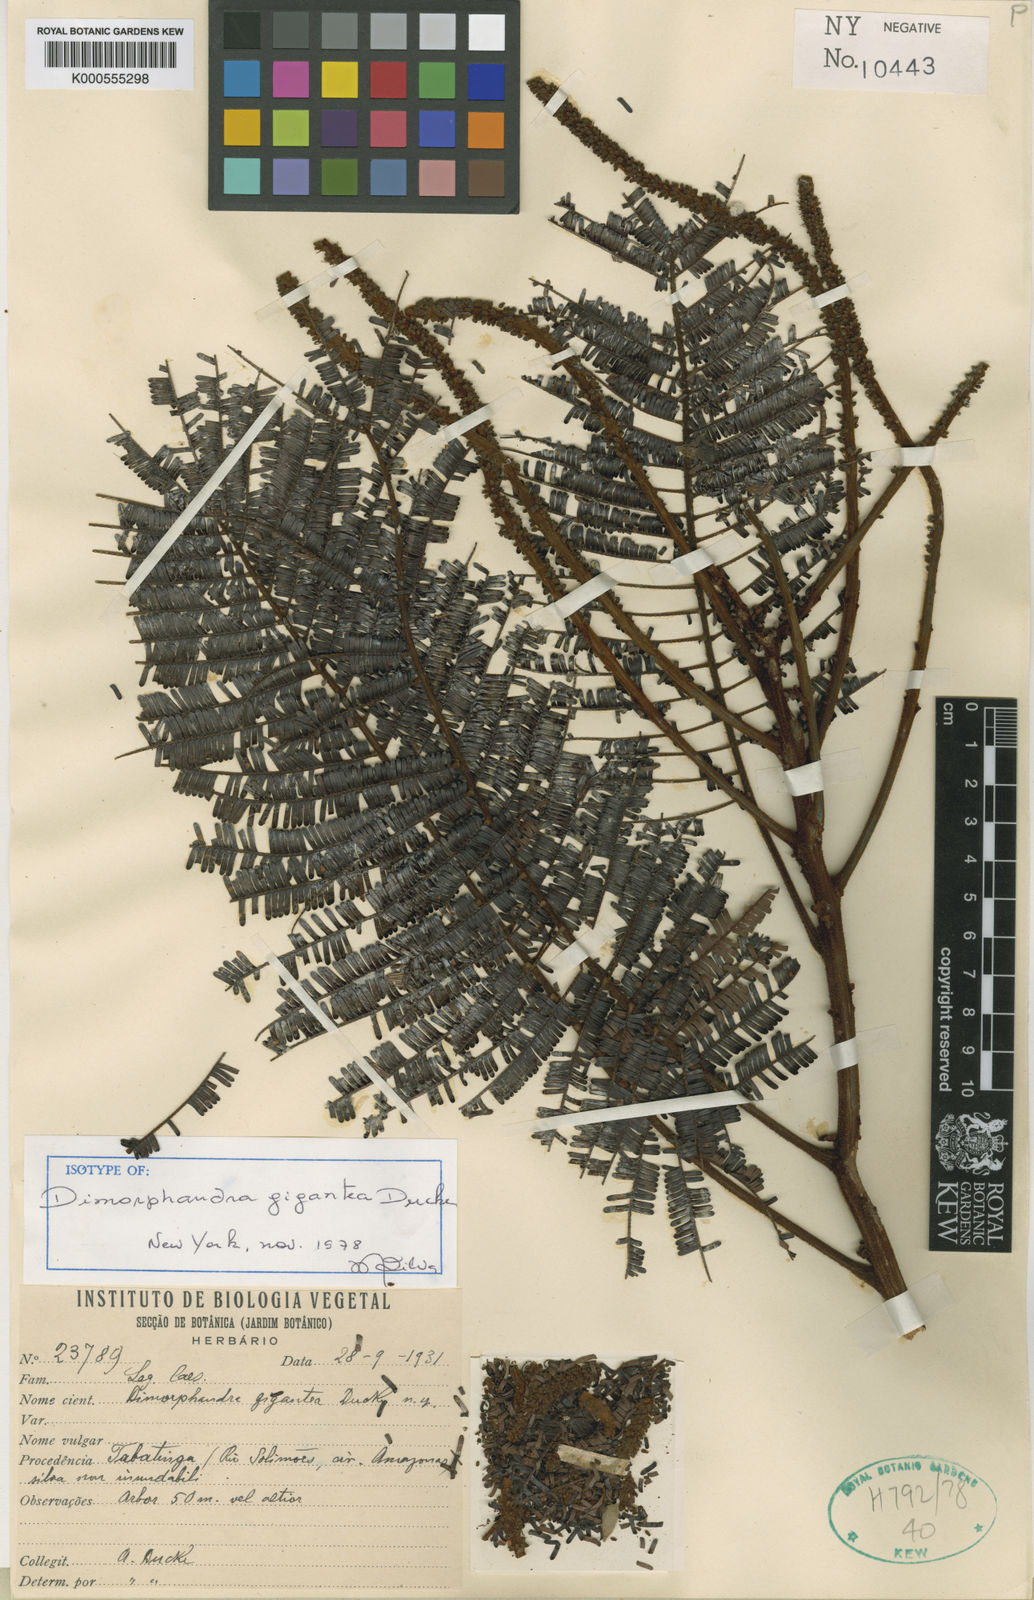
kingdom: Plantae
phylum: Tracheophyta
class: Magnoliopsida
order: Fabales
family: Fabaceae
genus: Dimorphandra
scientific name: Dimorphandra gigantea
